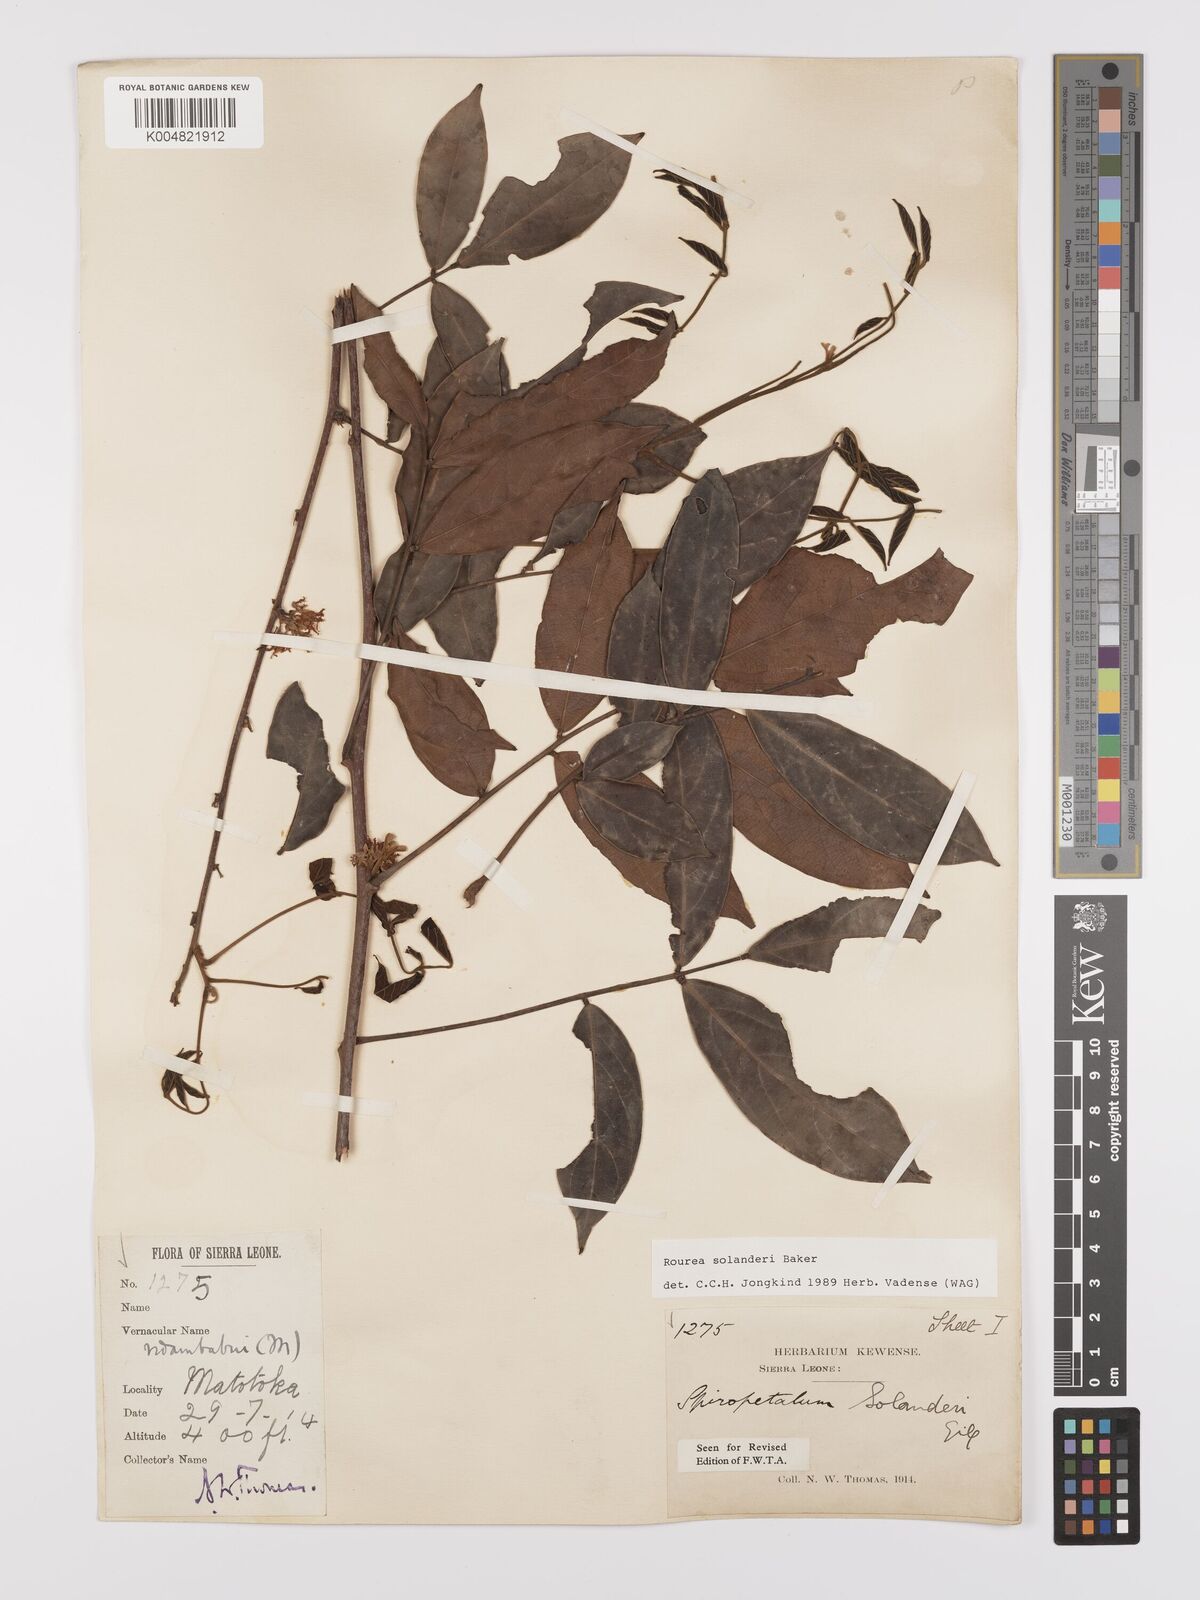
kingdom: Plantae
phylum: Tracheophyta
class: Magnoliopsida
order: Oxalidales
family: Connaraceae
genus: Rourea
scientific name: Rourea solanderi
